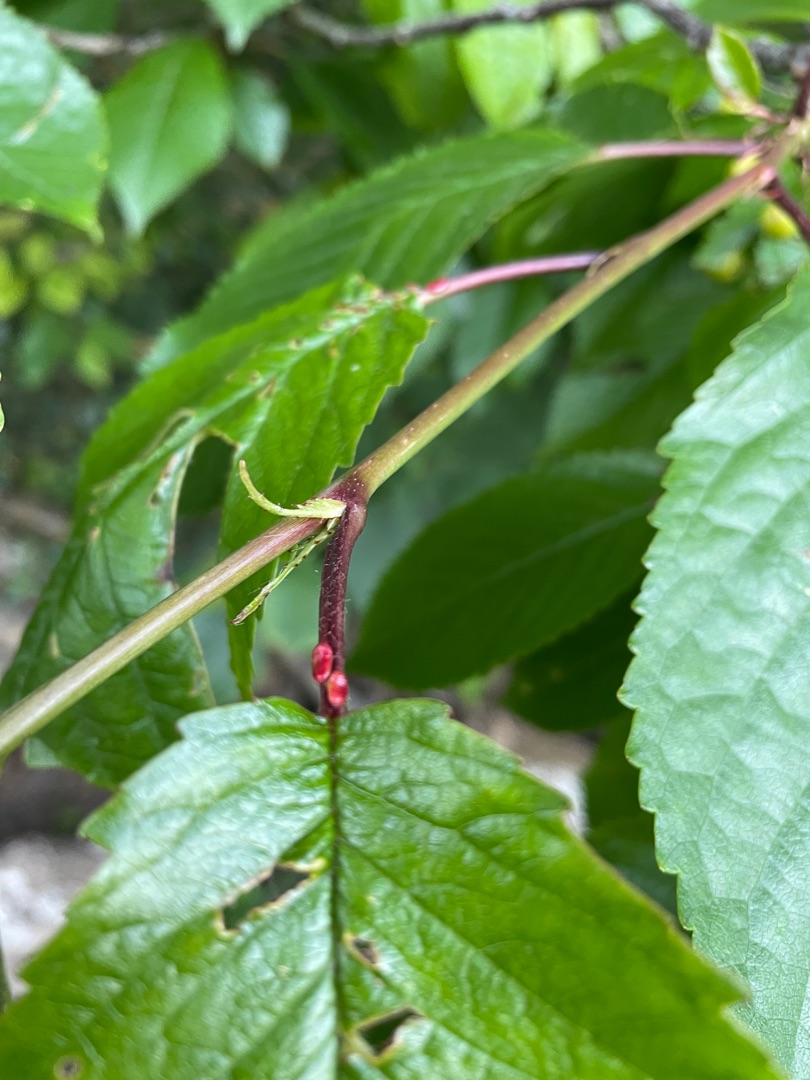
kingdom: Plantae
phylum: Tracheophyta
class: Magnoliopsida
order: Rosales
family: Rosaceae
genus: Prunus
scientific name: Prunus avium
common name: Fugle-kirsebær
